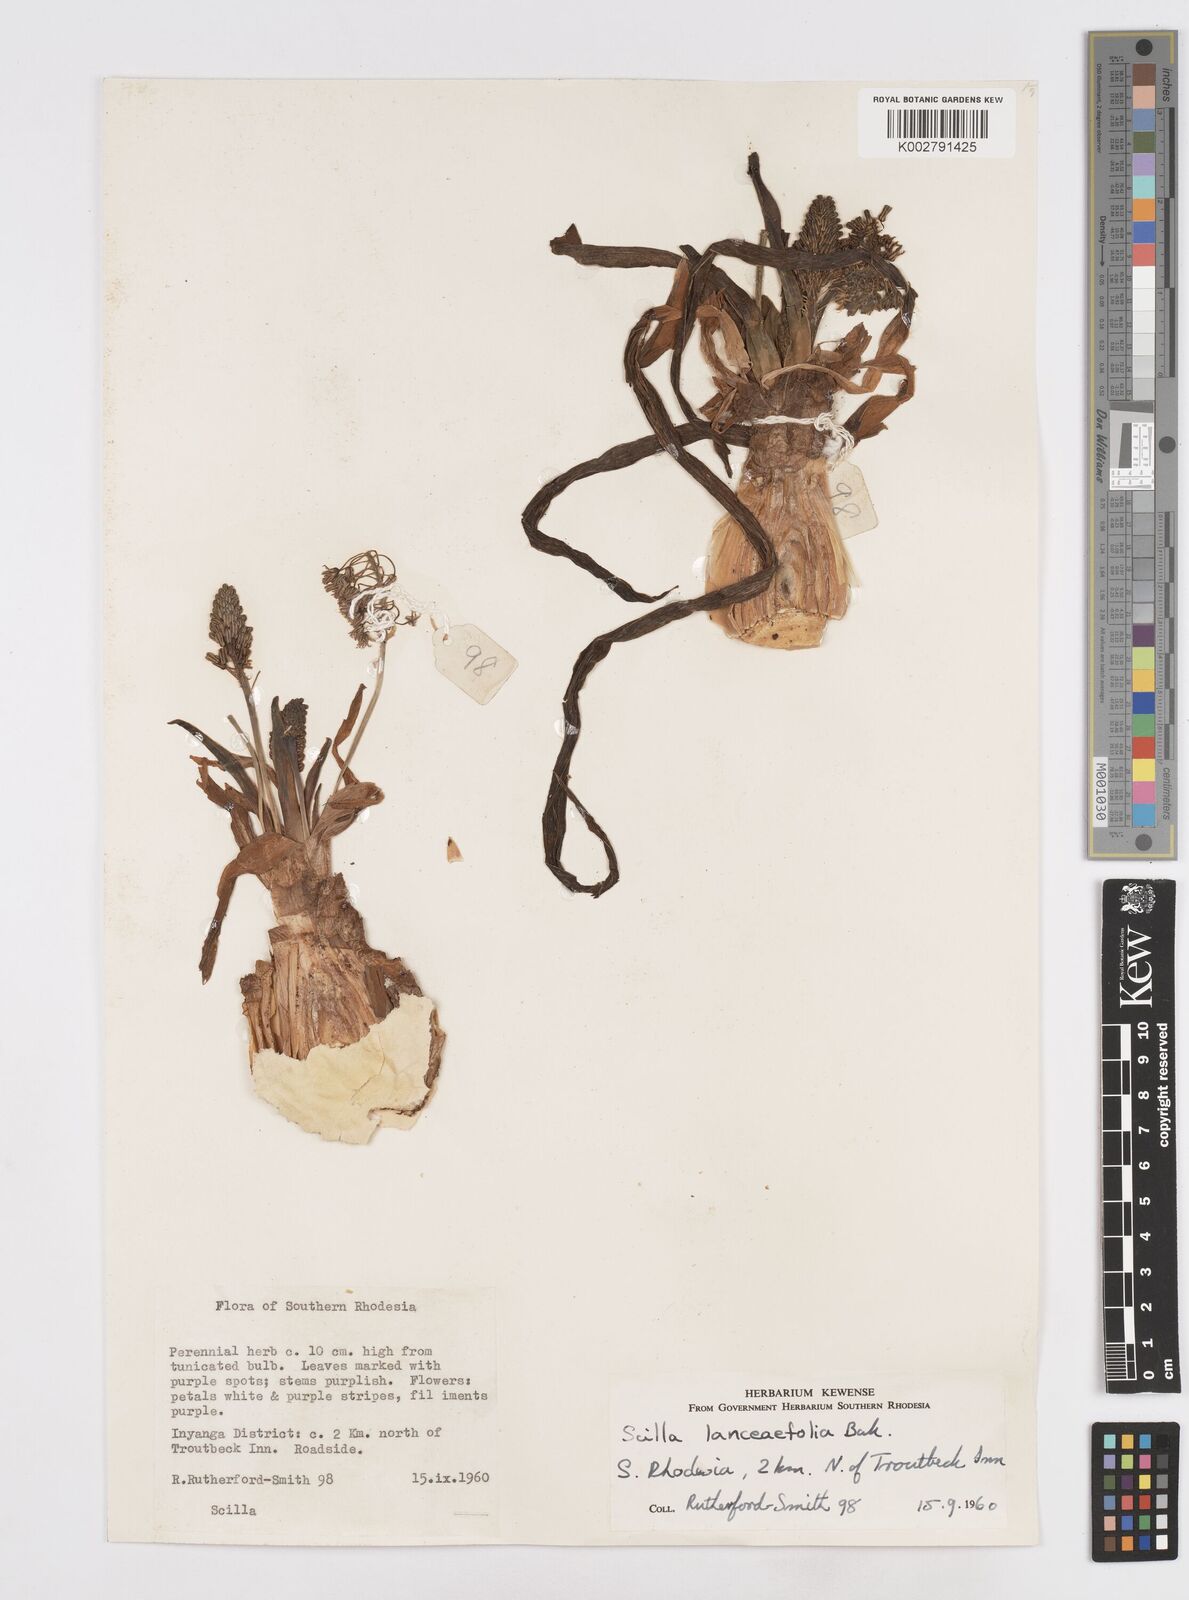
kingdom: Plantae
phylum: Tracheophyta
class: Liliopsida
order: Asparagales
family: Asparagaceae
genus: Ledebouria
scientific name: Ledebouria revoluta
